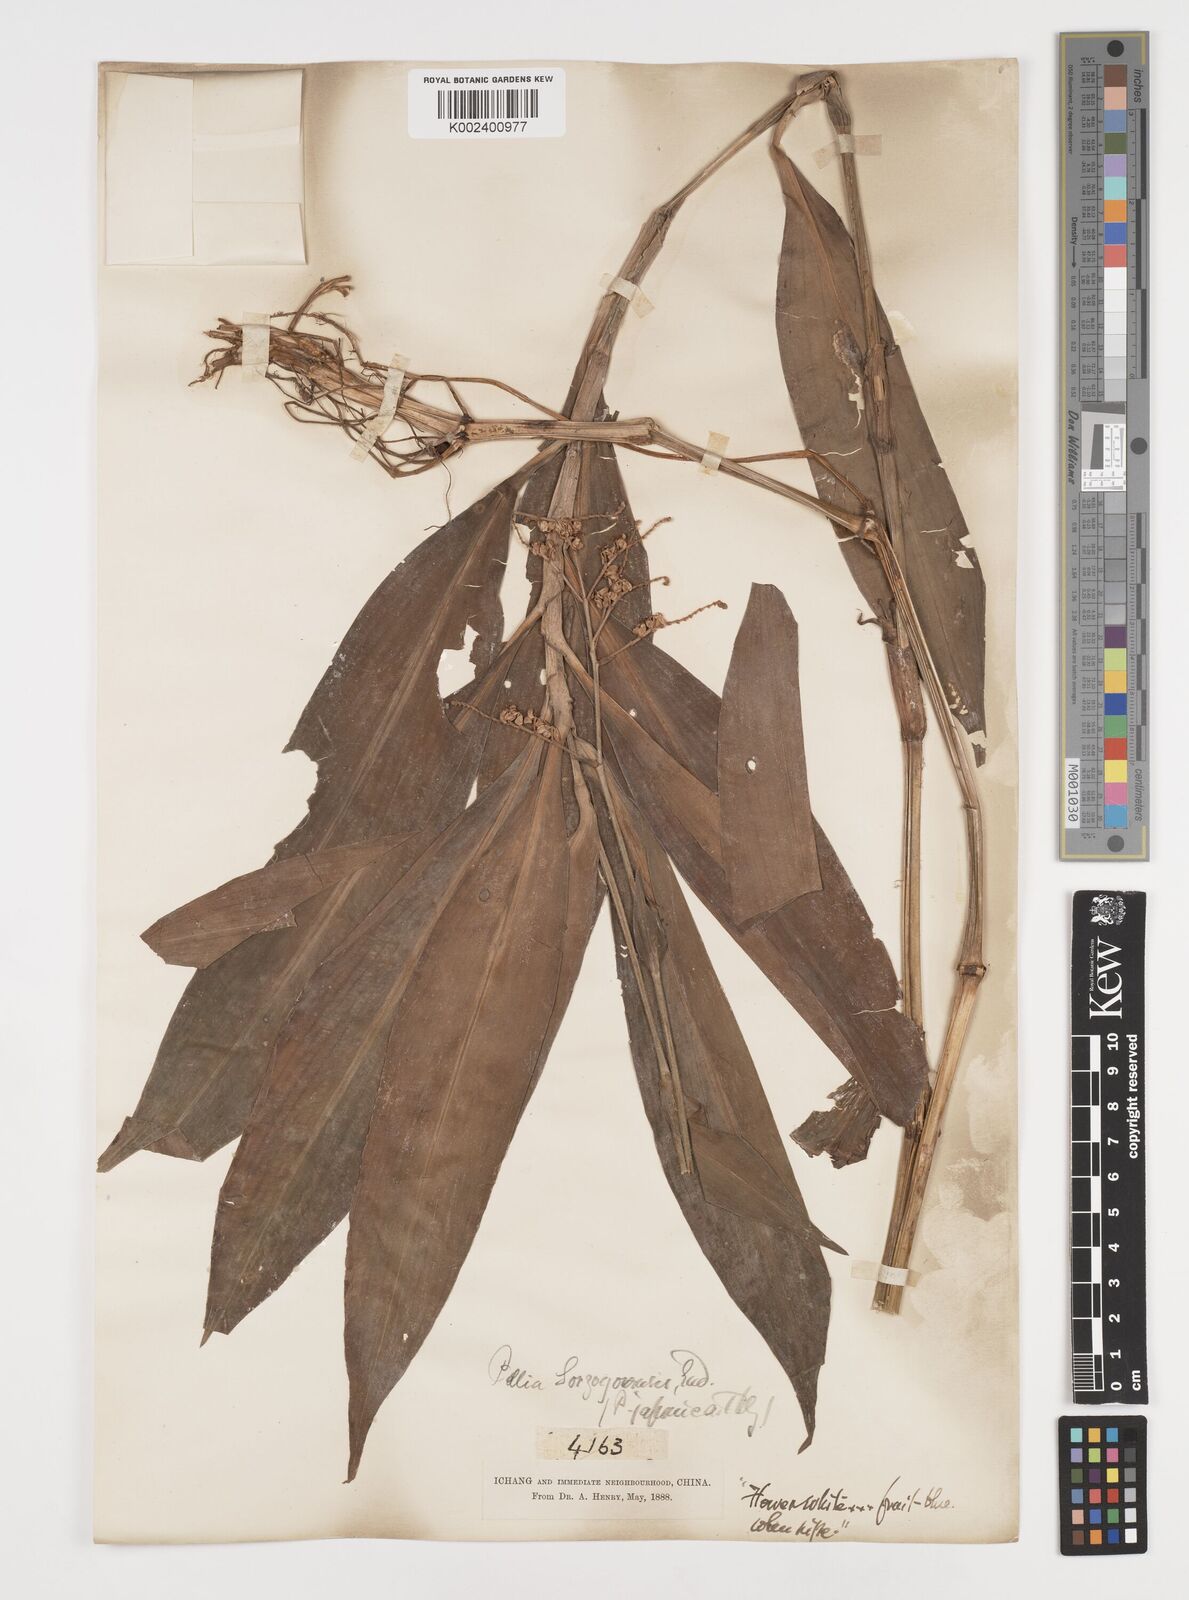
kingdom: Plantae
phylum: Tracheophyta
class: Liliopsida
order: Commelinales
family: Commelinaceae
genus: Pollia
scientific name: Pollia secundiflora
